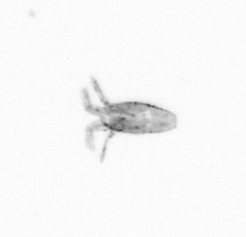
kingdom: Animalia
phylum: Arthropoda
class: Copepoda
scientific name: Copepoda
